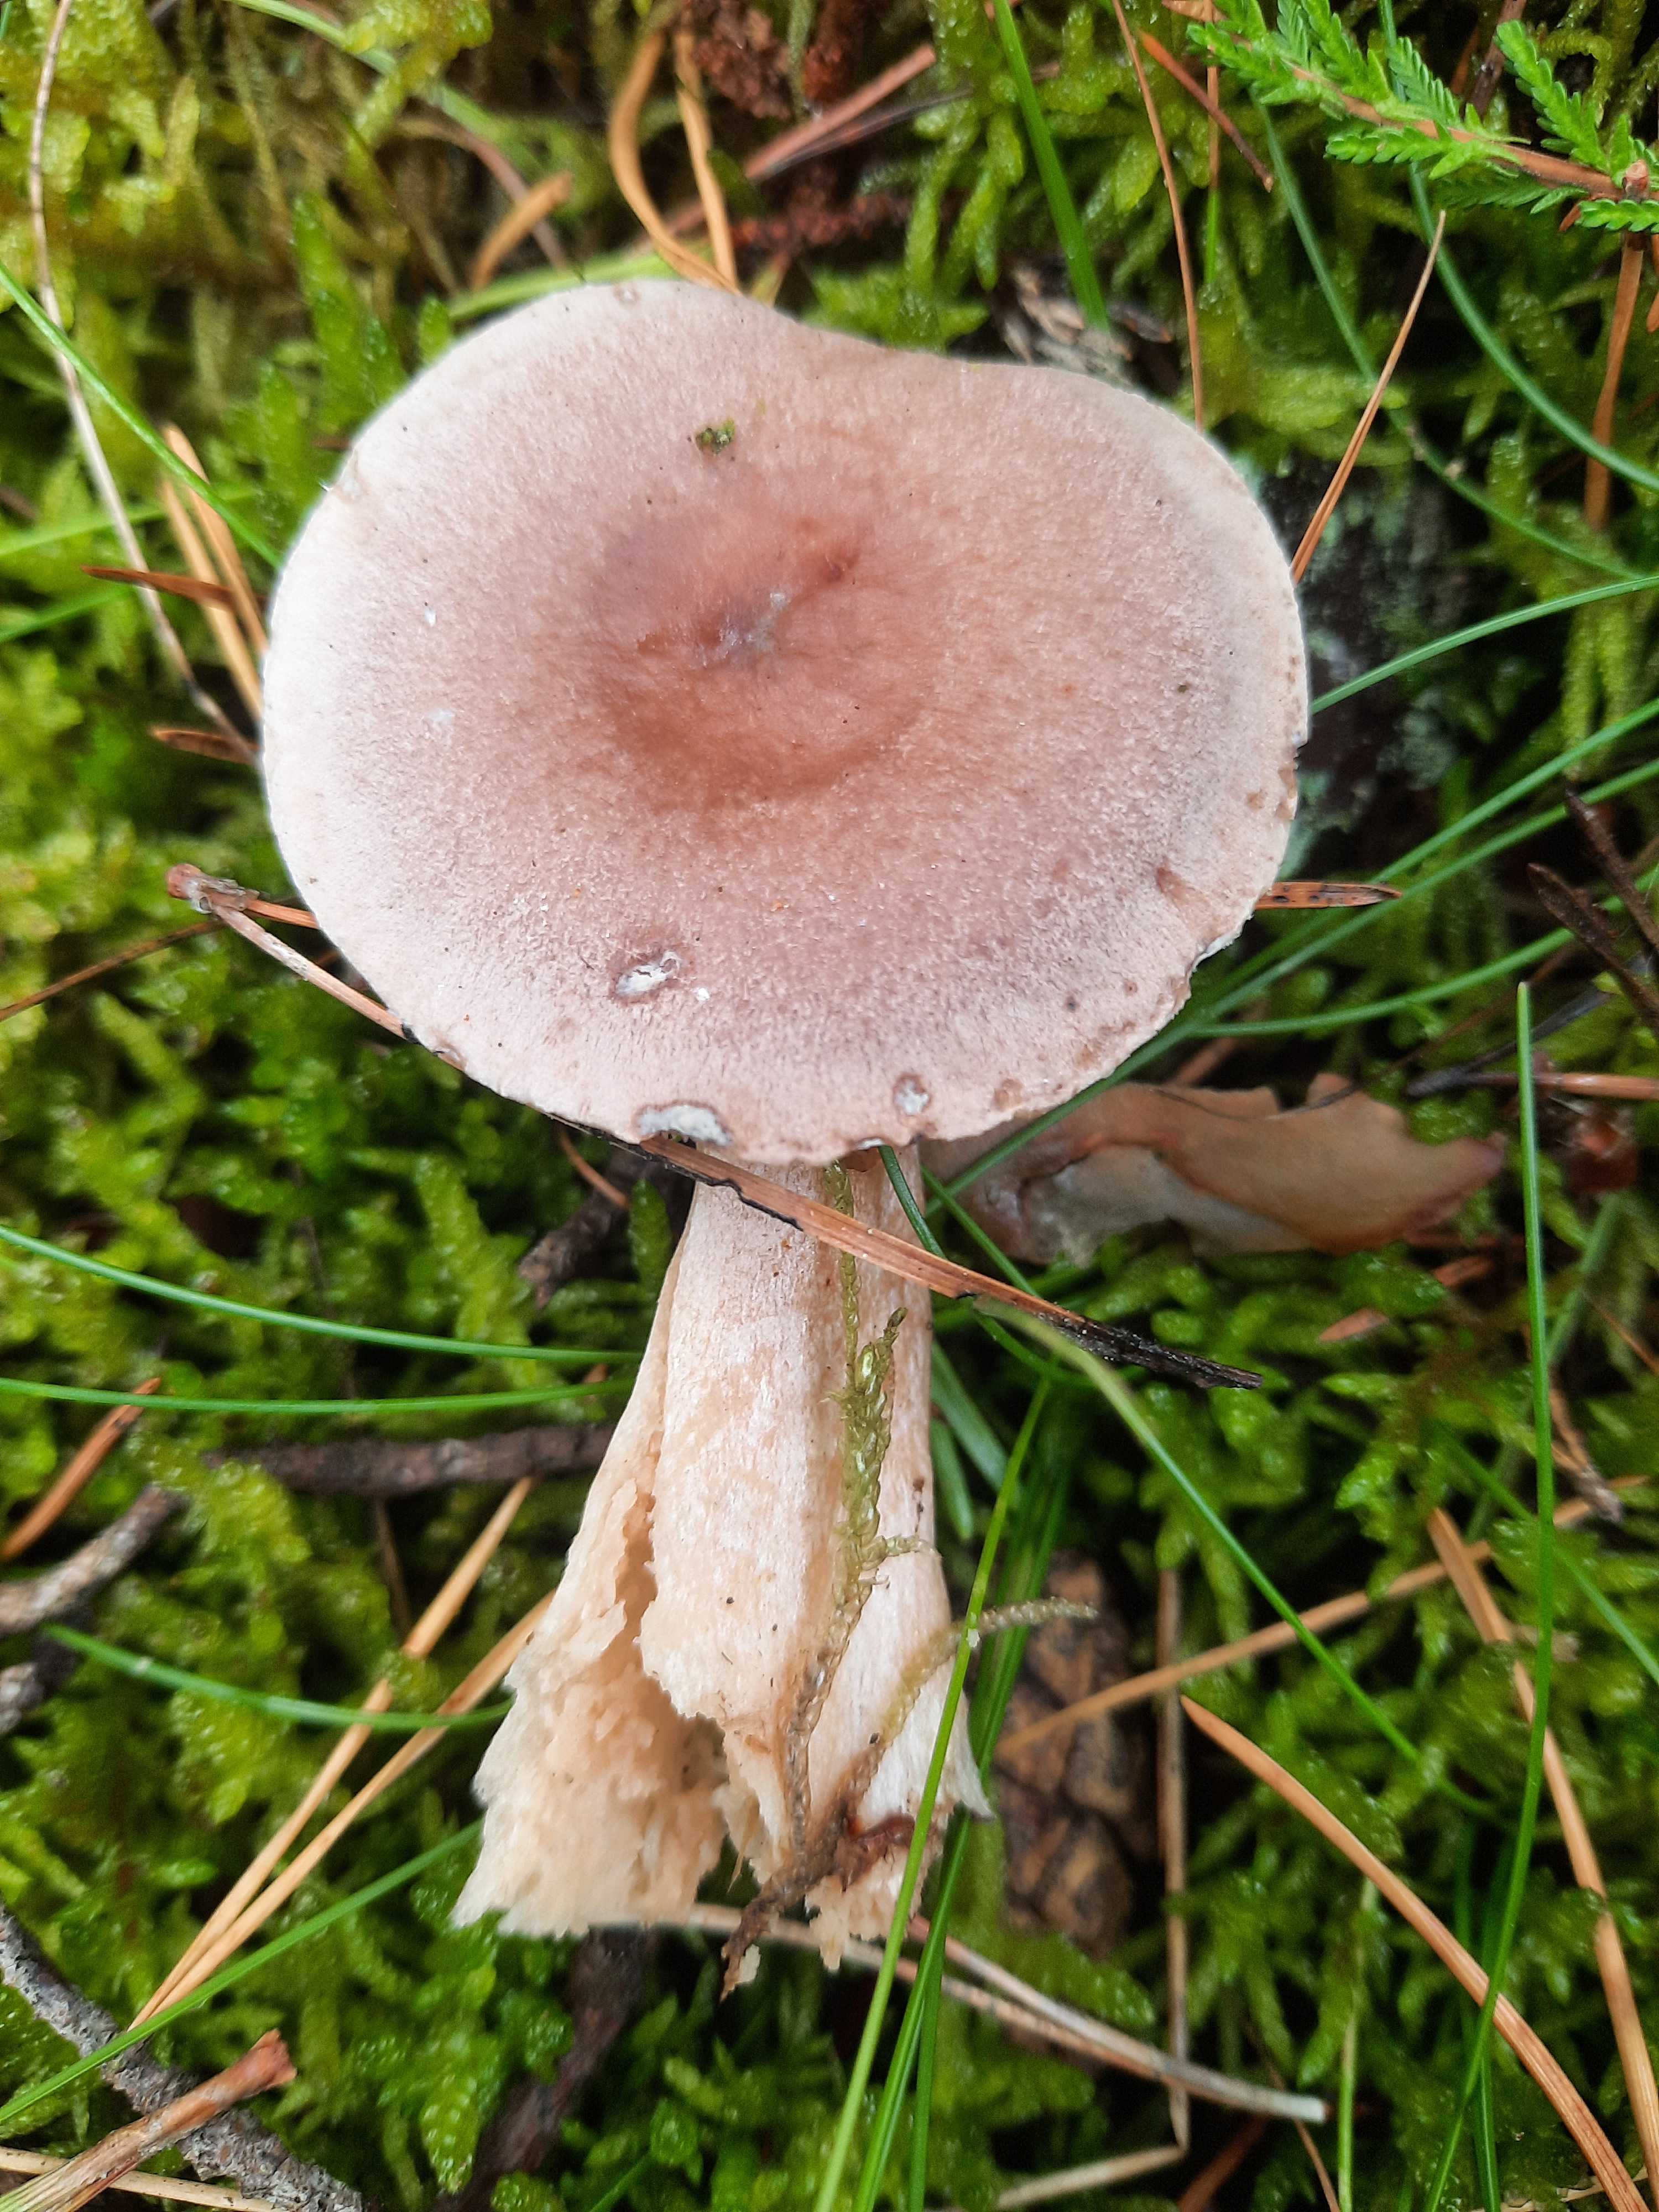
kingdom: Fungi
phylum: Basidiomycota
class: Agaricomycetes
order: Russulales
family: Russulaceae
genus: Lactarius
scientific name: Lactarius
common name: mælkehat
